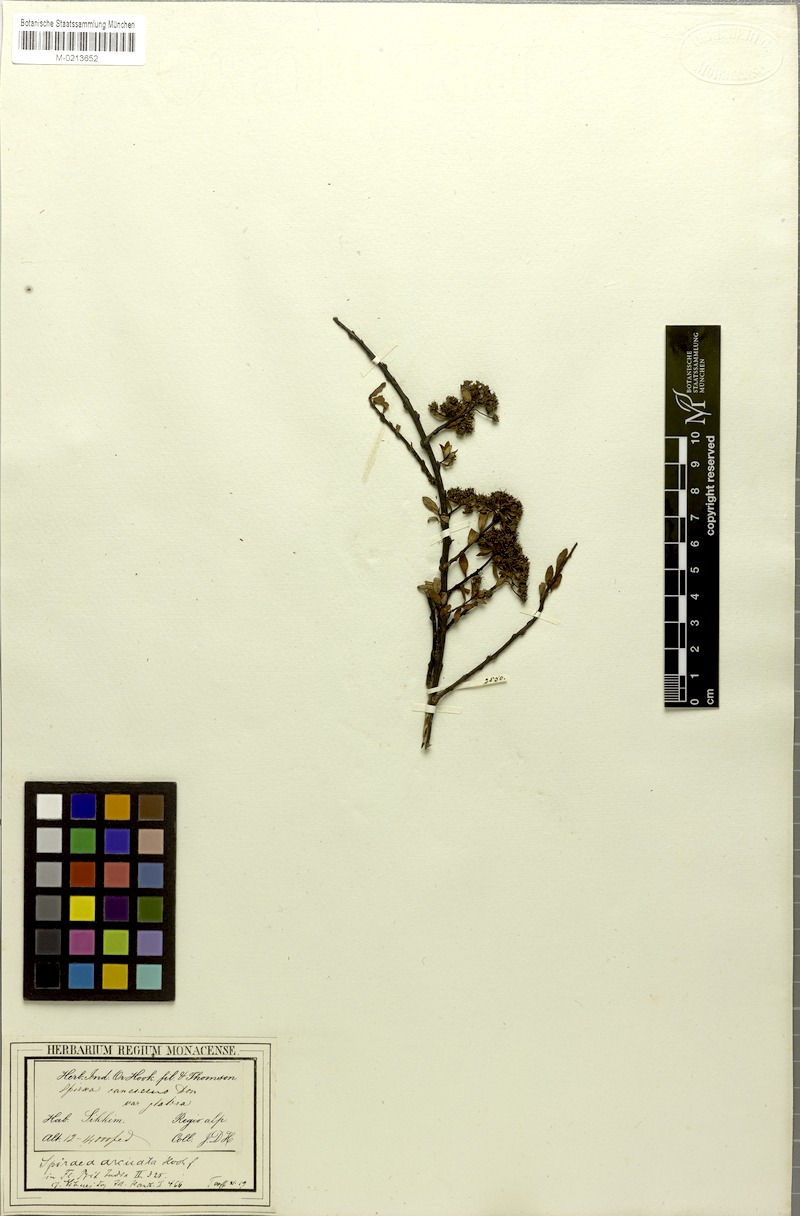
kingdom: Plantae
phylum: Tracheophyta
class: Magnoliopsida
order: Rosales
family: Rosaceae
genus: Spiraea
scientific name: Spiraea arcuata
